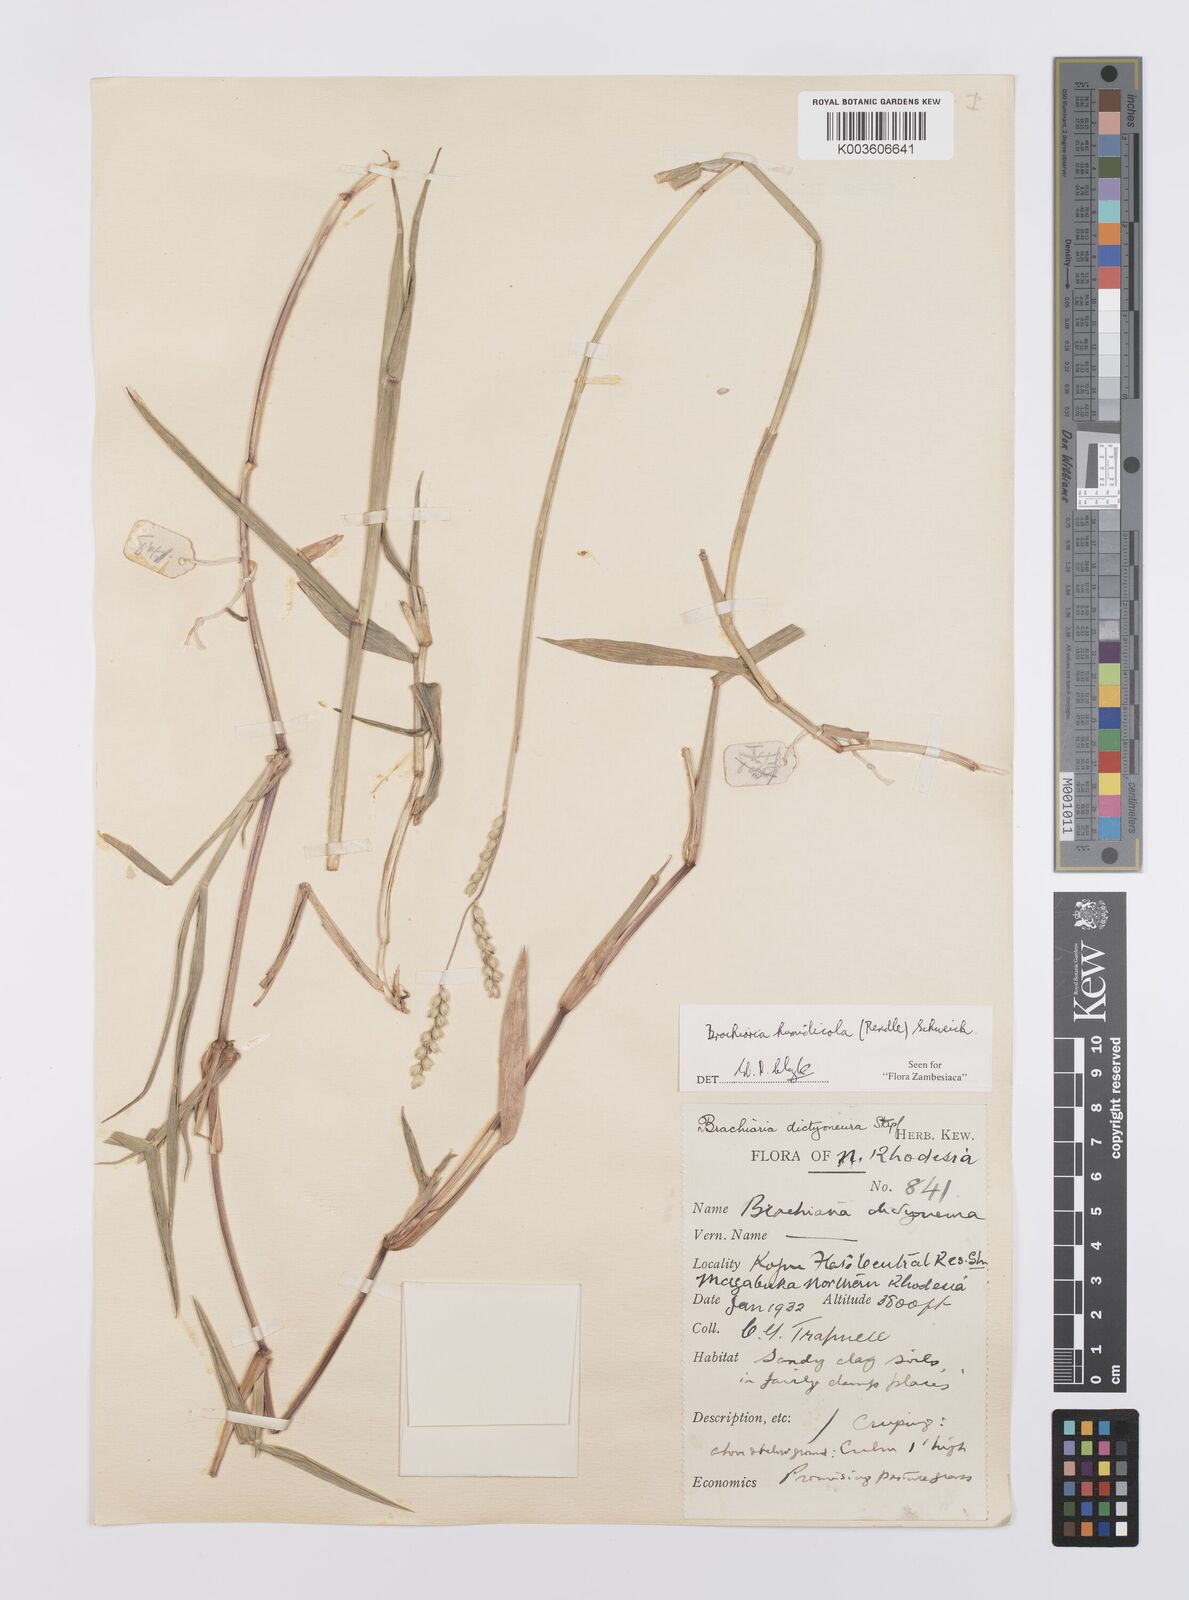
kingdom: Plantae
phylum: Tracheophyta
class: Liliopsida
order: Poales
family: Poaceae
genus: Urochloa
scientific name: Urochloa dictyoneura
